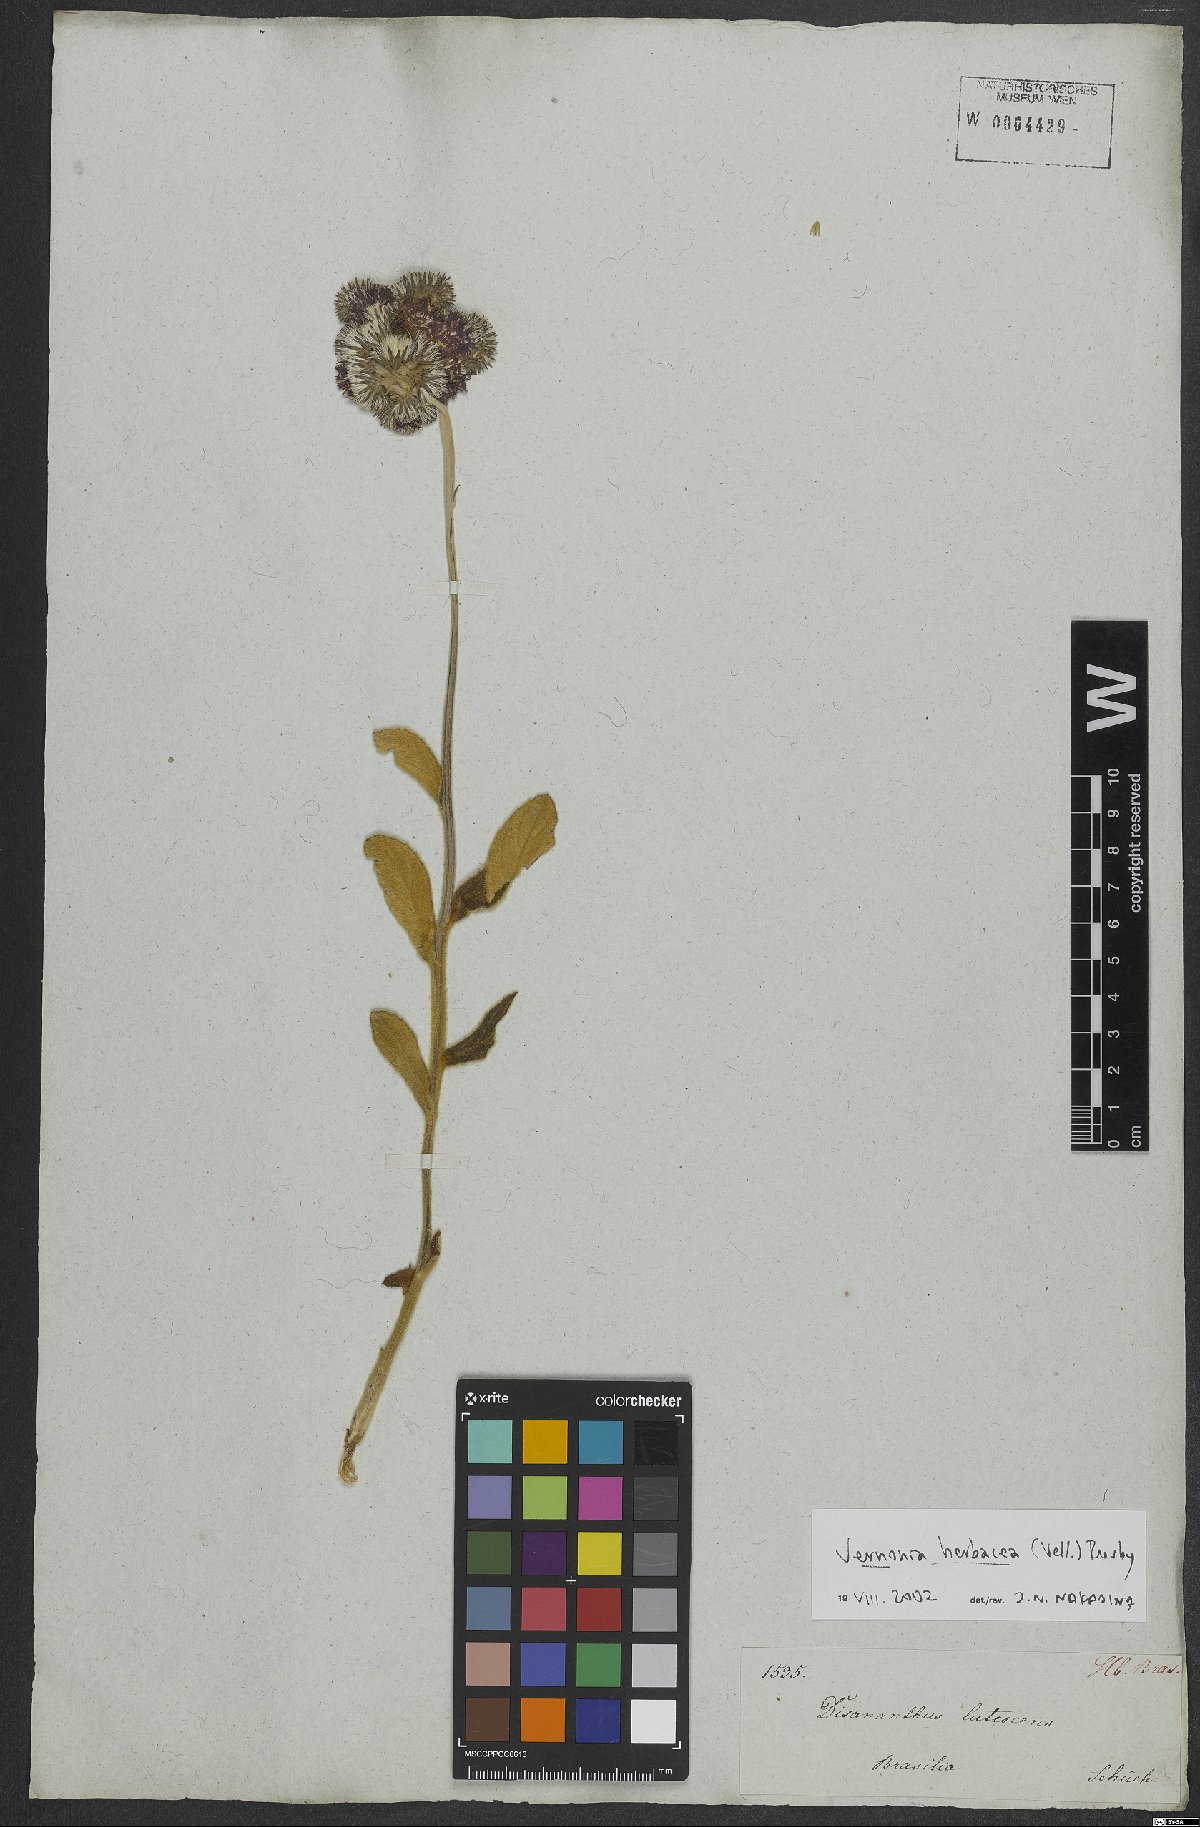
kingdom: Plantae
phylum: Tracheophyta
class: Magnoliopsida
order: Asterales
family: Asteraceae
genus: Chrysolaena
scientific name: Chrysolaena obovata
